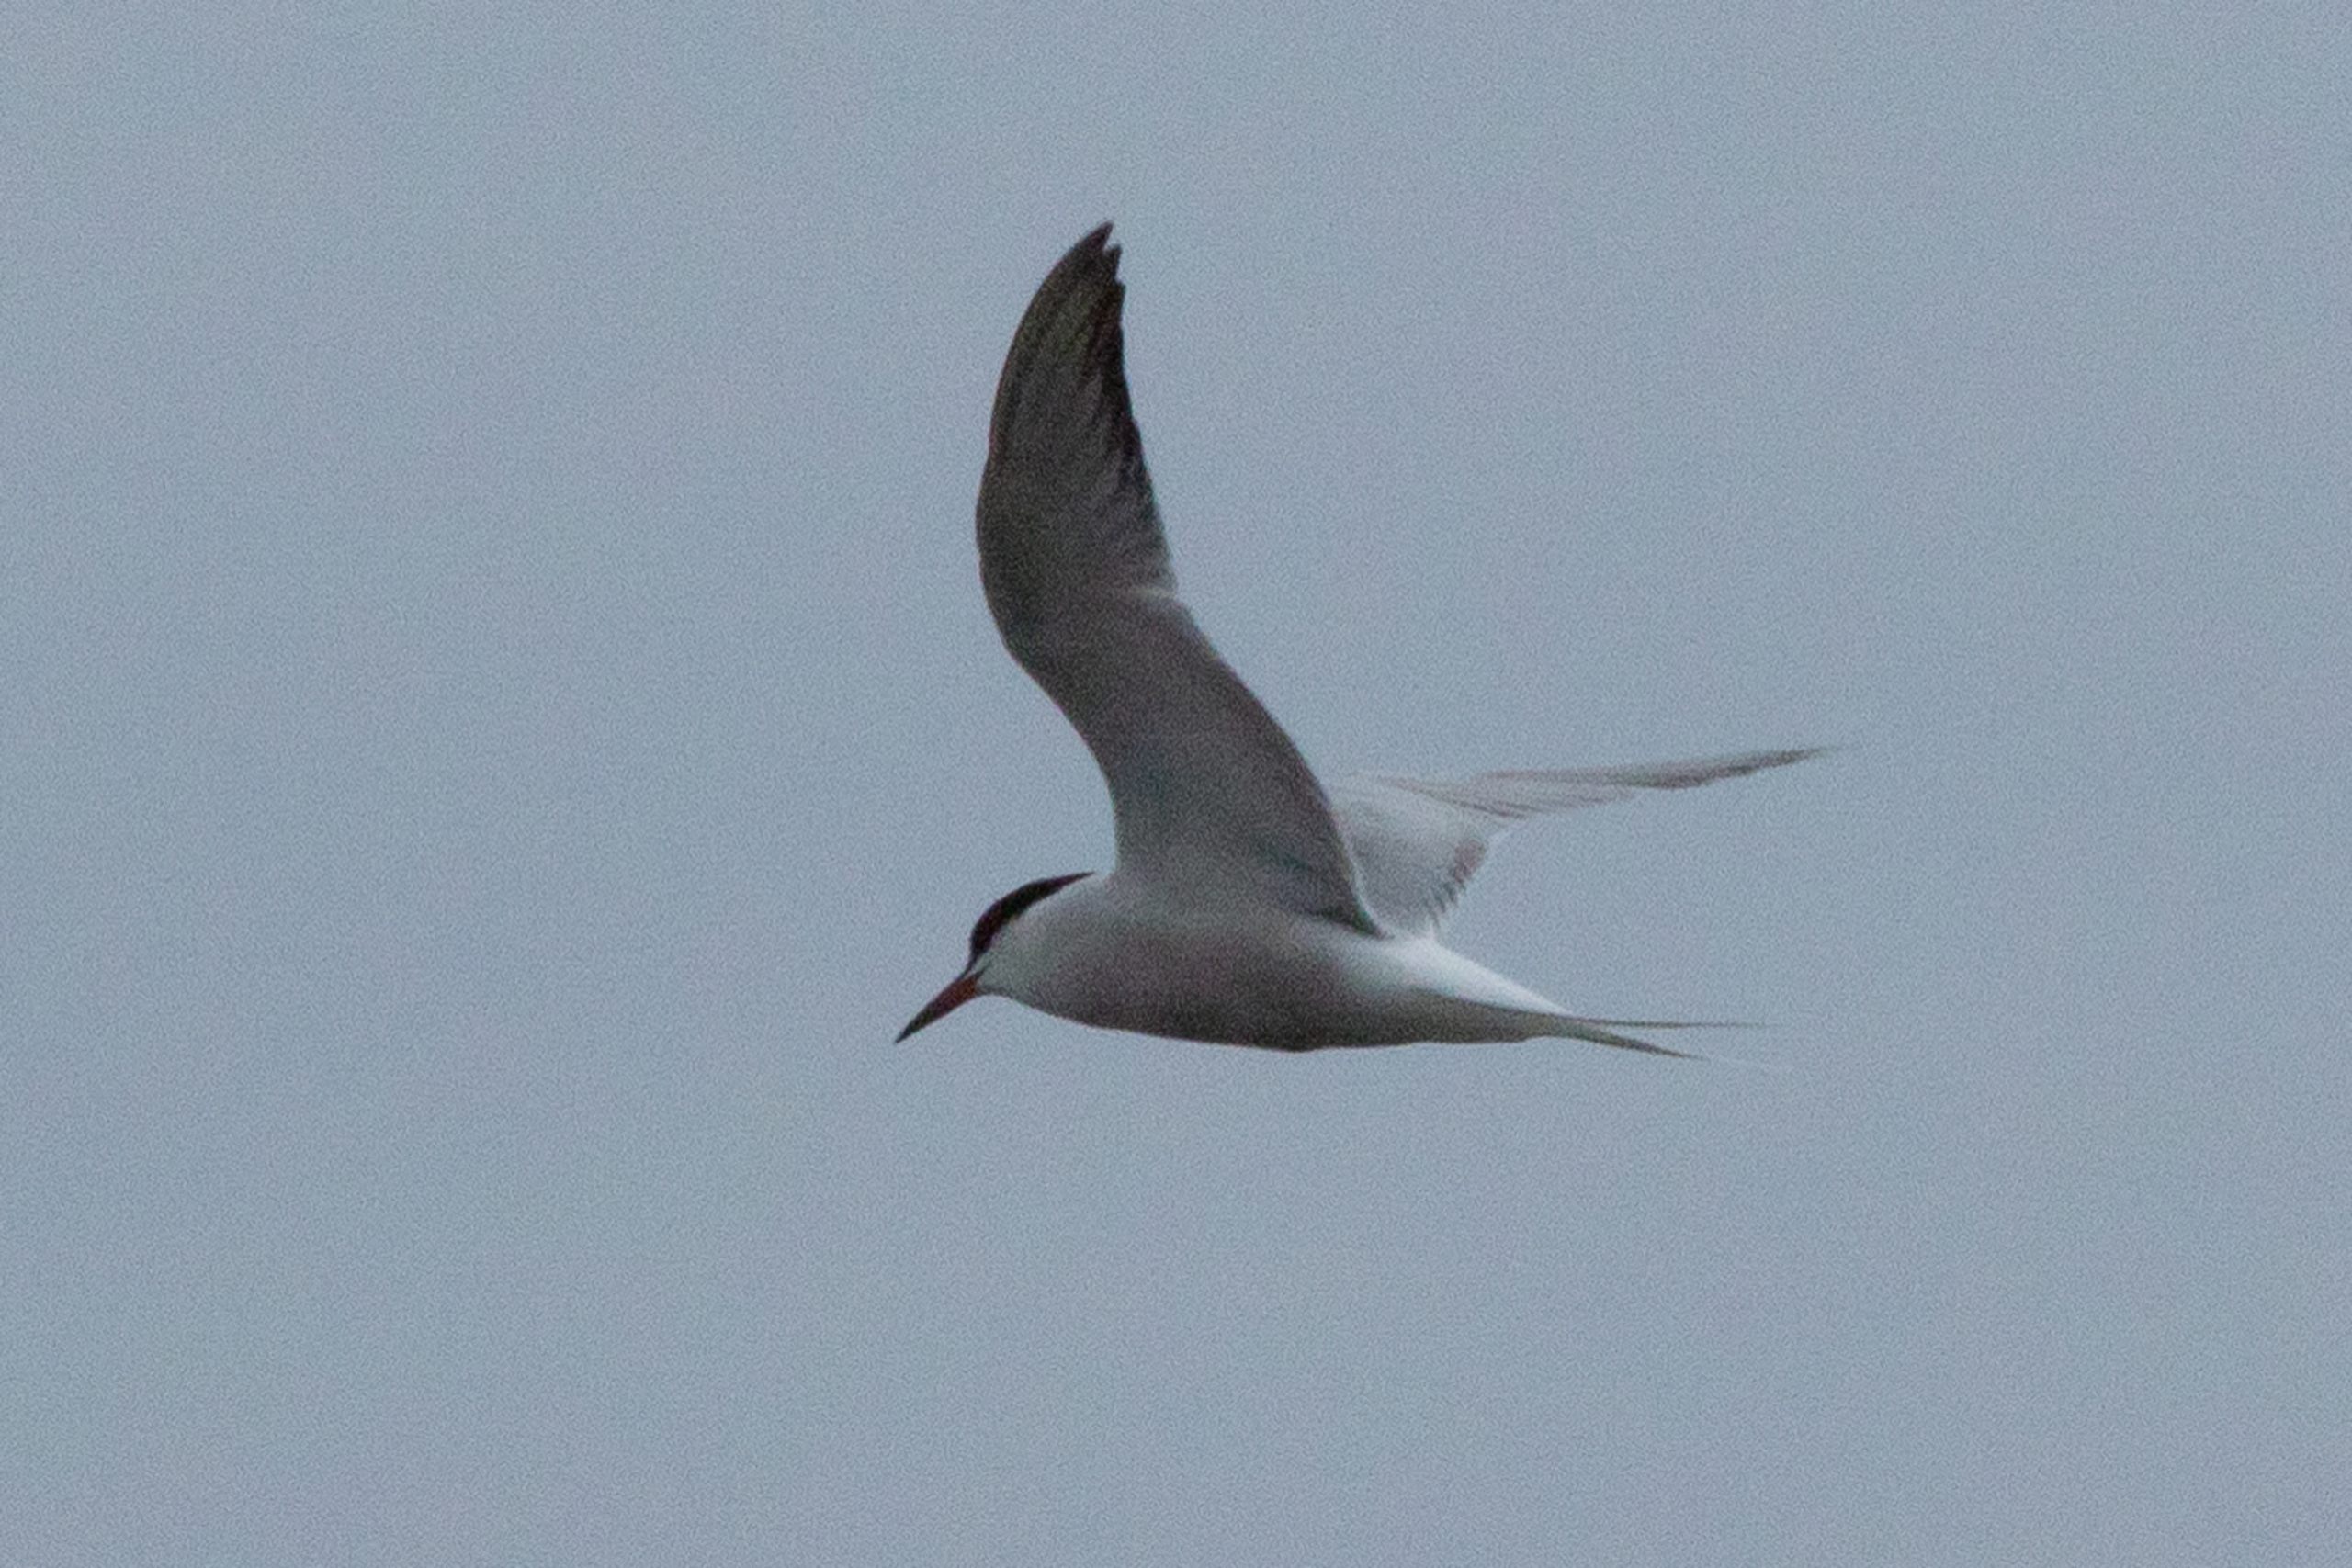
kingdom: Animalia
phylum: Chordata
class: Aves
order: Charadriiformes
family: Laridae
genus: Sterna
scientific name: Sterna hirundo
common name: Fjordterne
